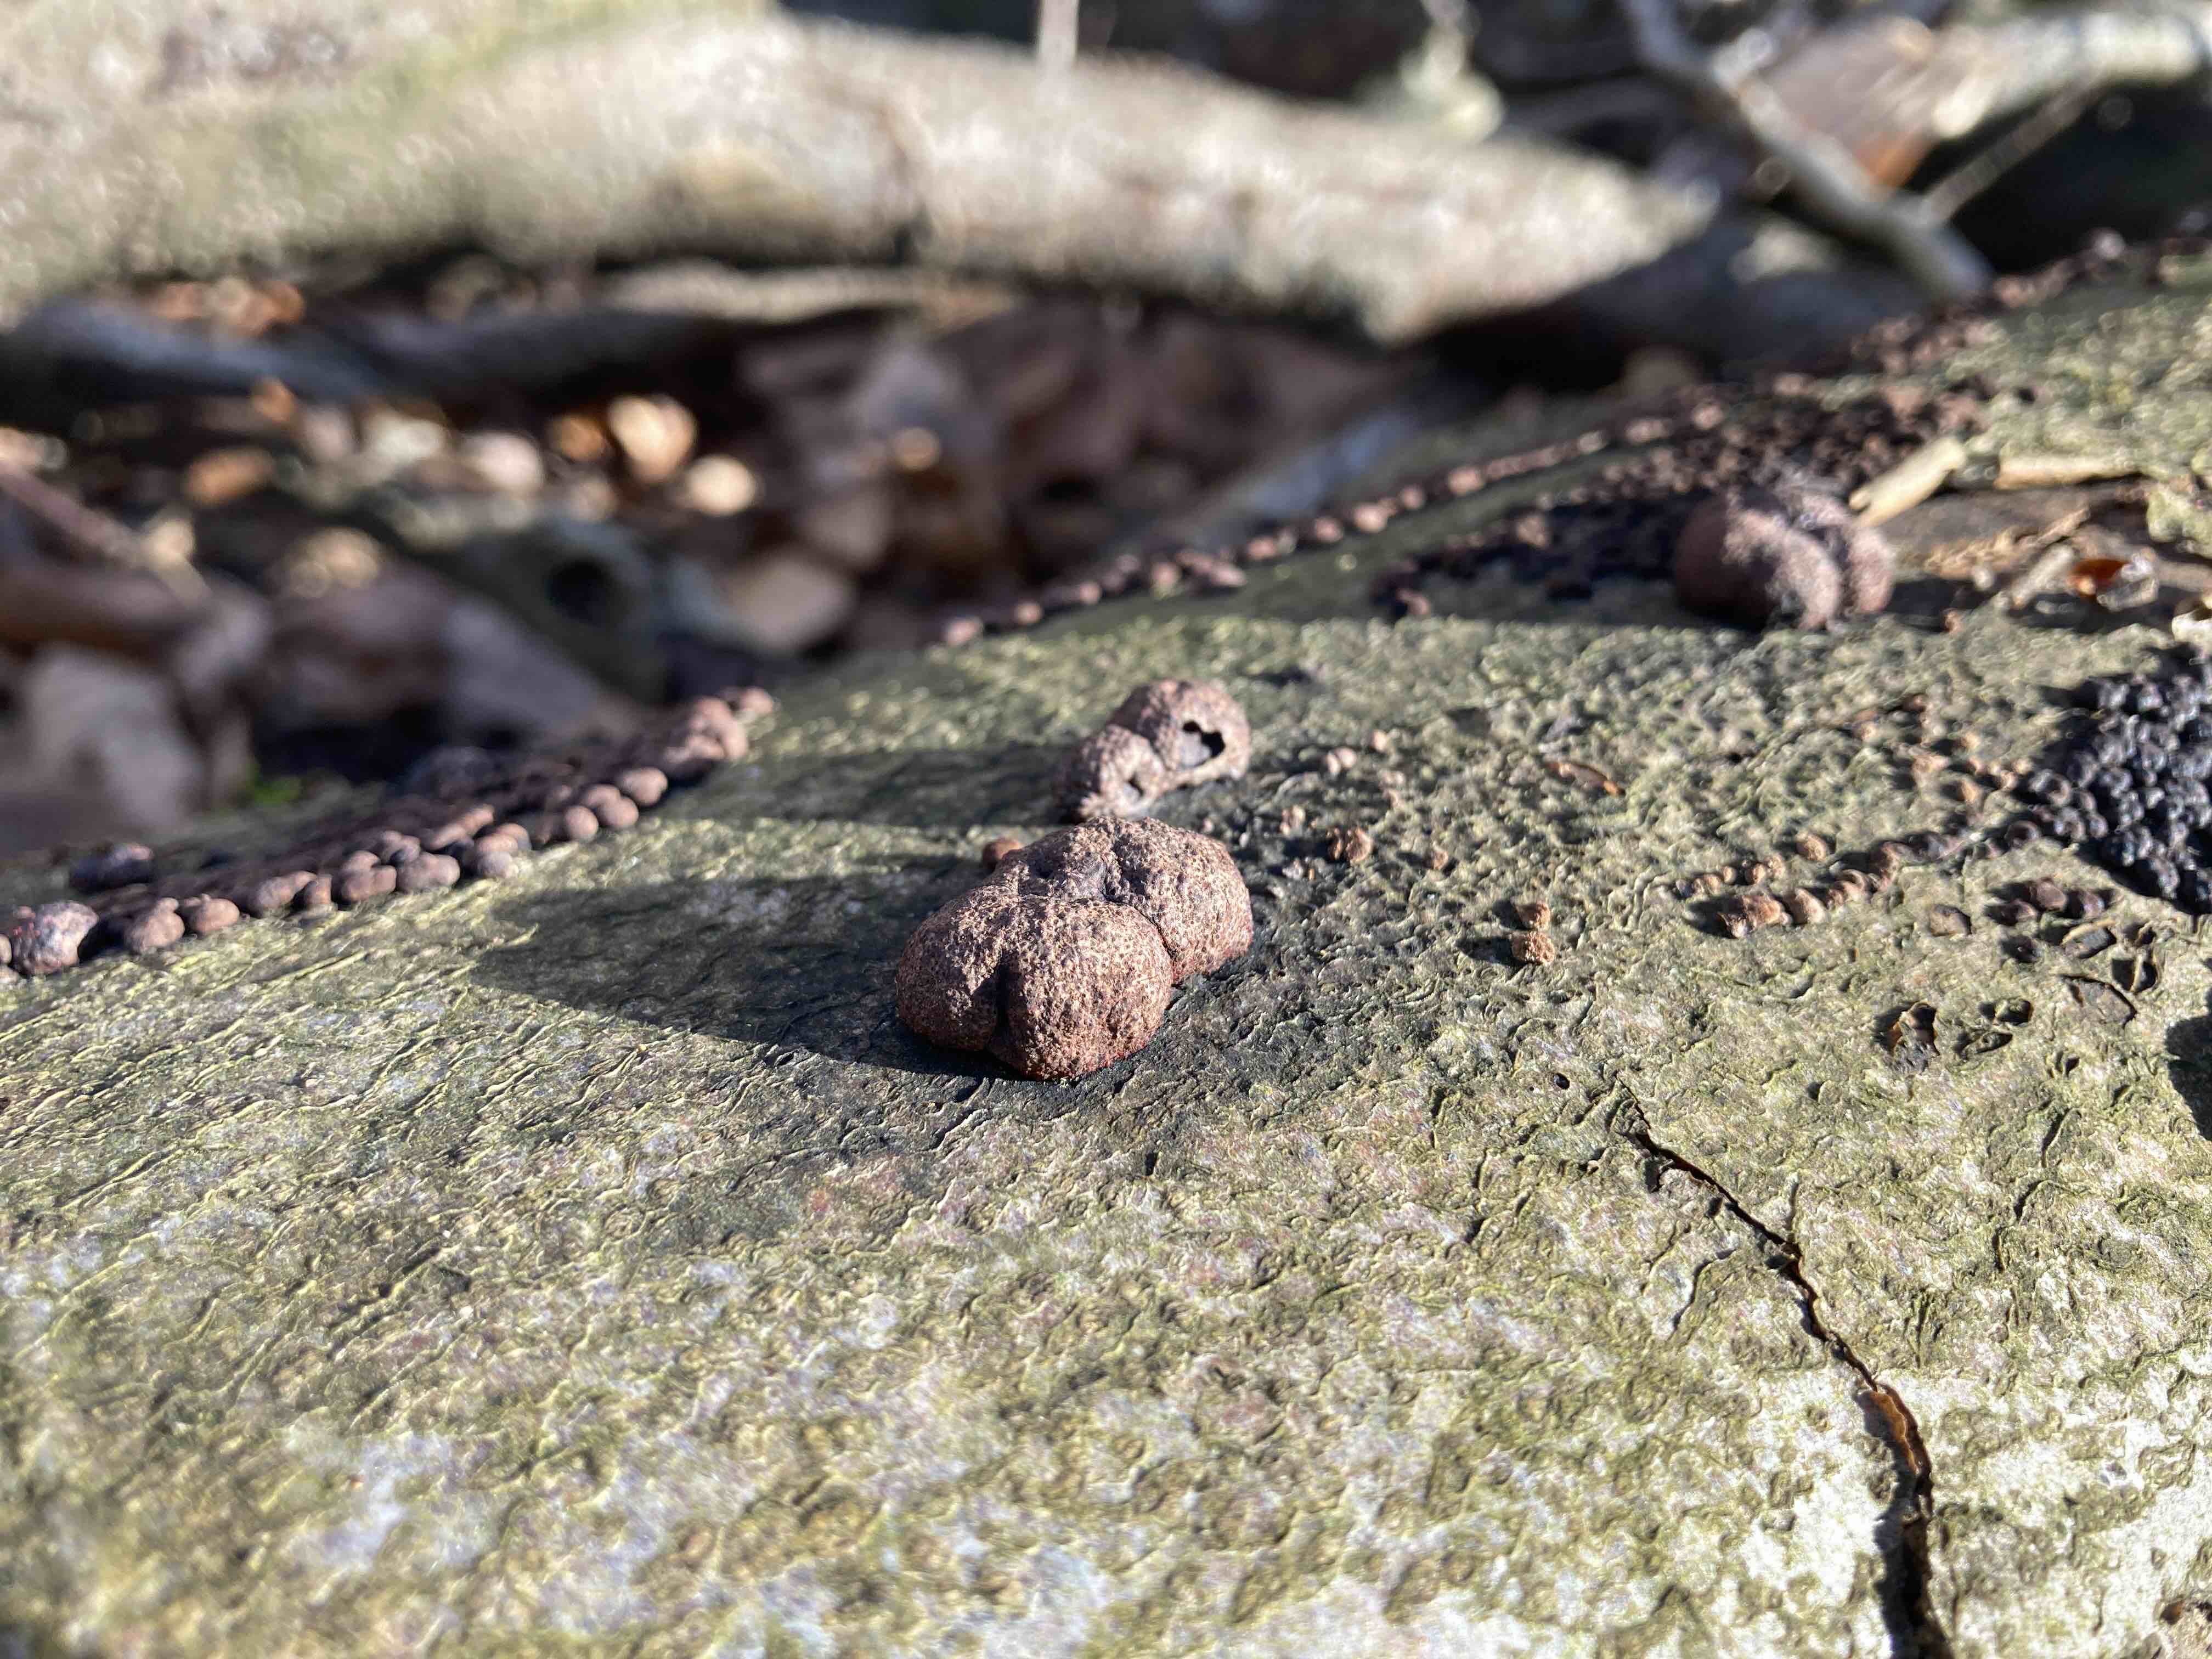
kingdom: Fungi
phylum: Ascomycota
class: Sordariomycetes
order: Hypocreales
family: Nectriaceae
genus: Cosmospora
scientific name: Cosmospora arxii
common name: kuljordbær-cinnobersvamp
